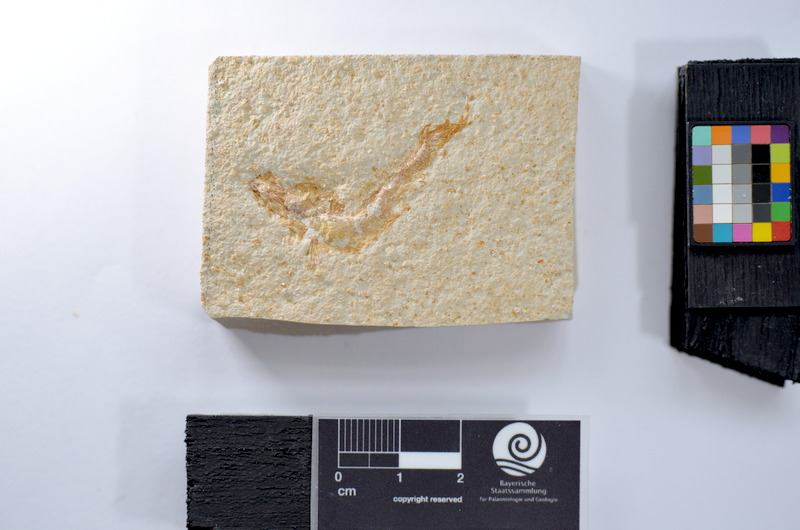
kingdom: Animalia
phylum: Chordata
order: Salmoniformes
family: Orthogonikleithridae
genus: Leptolepides
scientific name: Leptolepides
